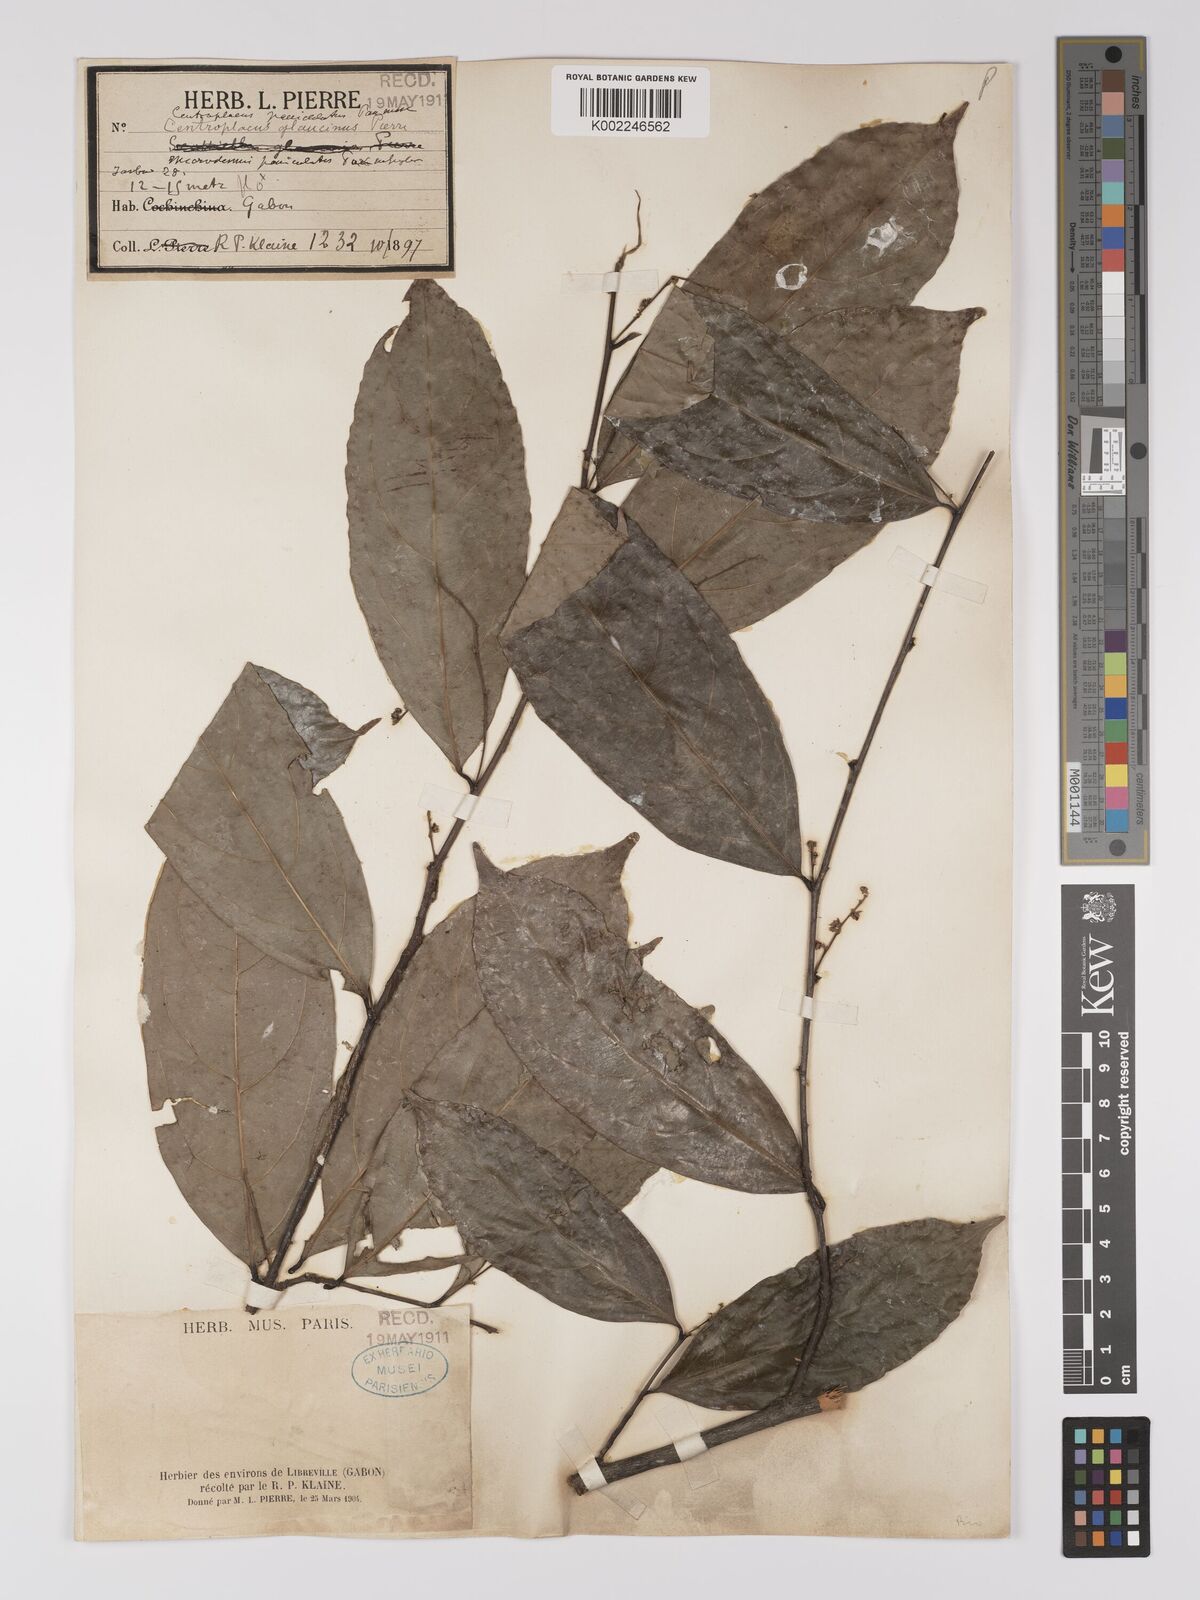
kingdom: Plantae
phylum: Tracheophyta
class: Magnoliopsida
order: Malpighiales
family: Centroplacaceae
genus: Centroplacus
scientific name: Centroplacus glaucinus
